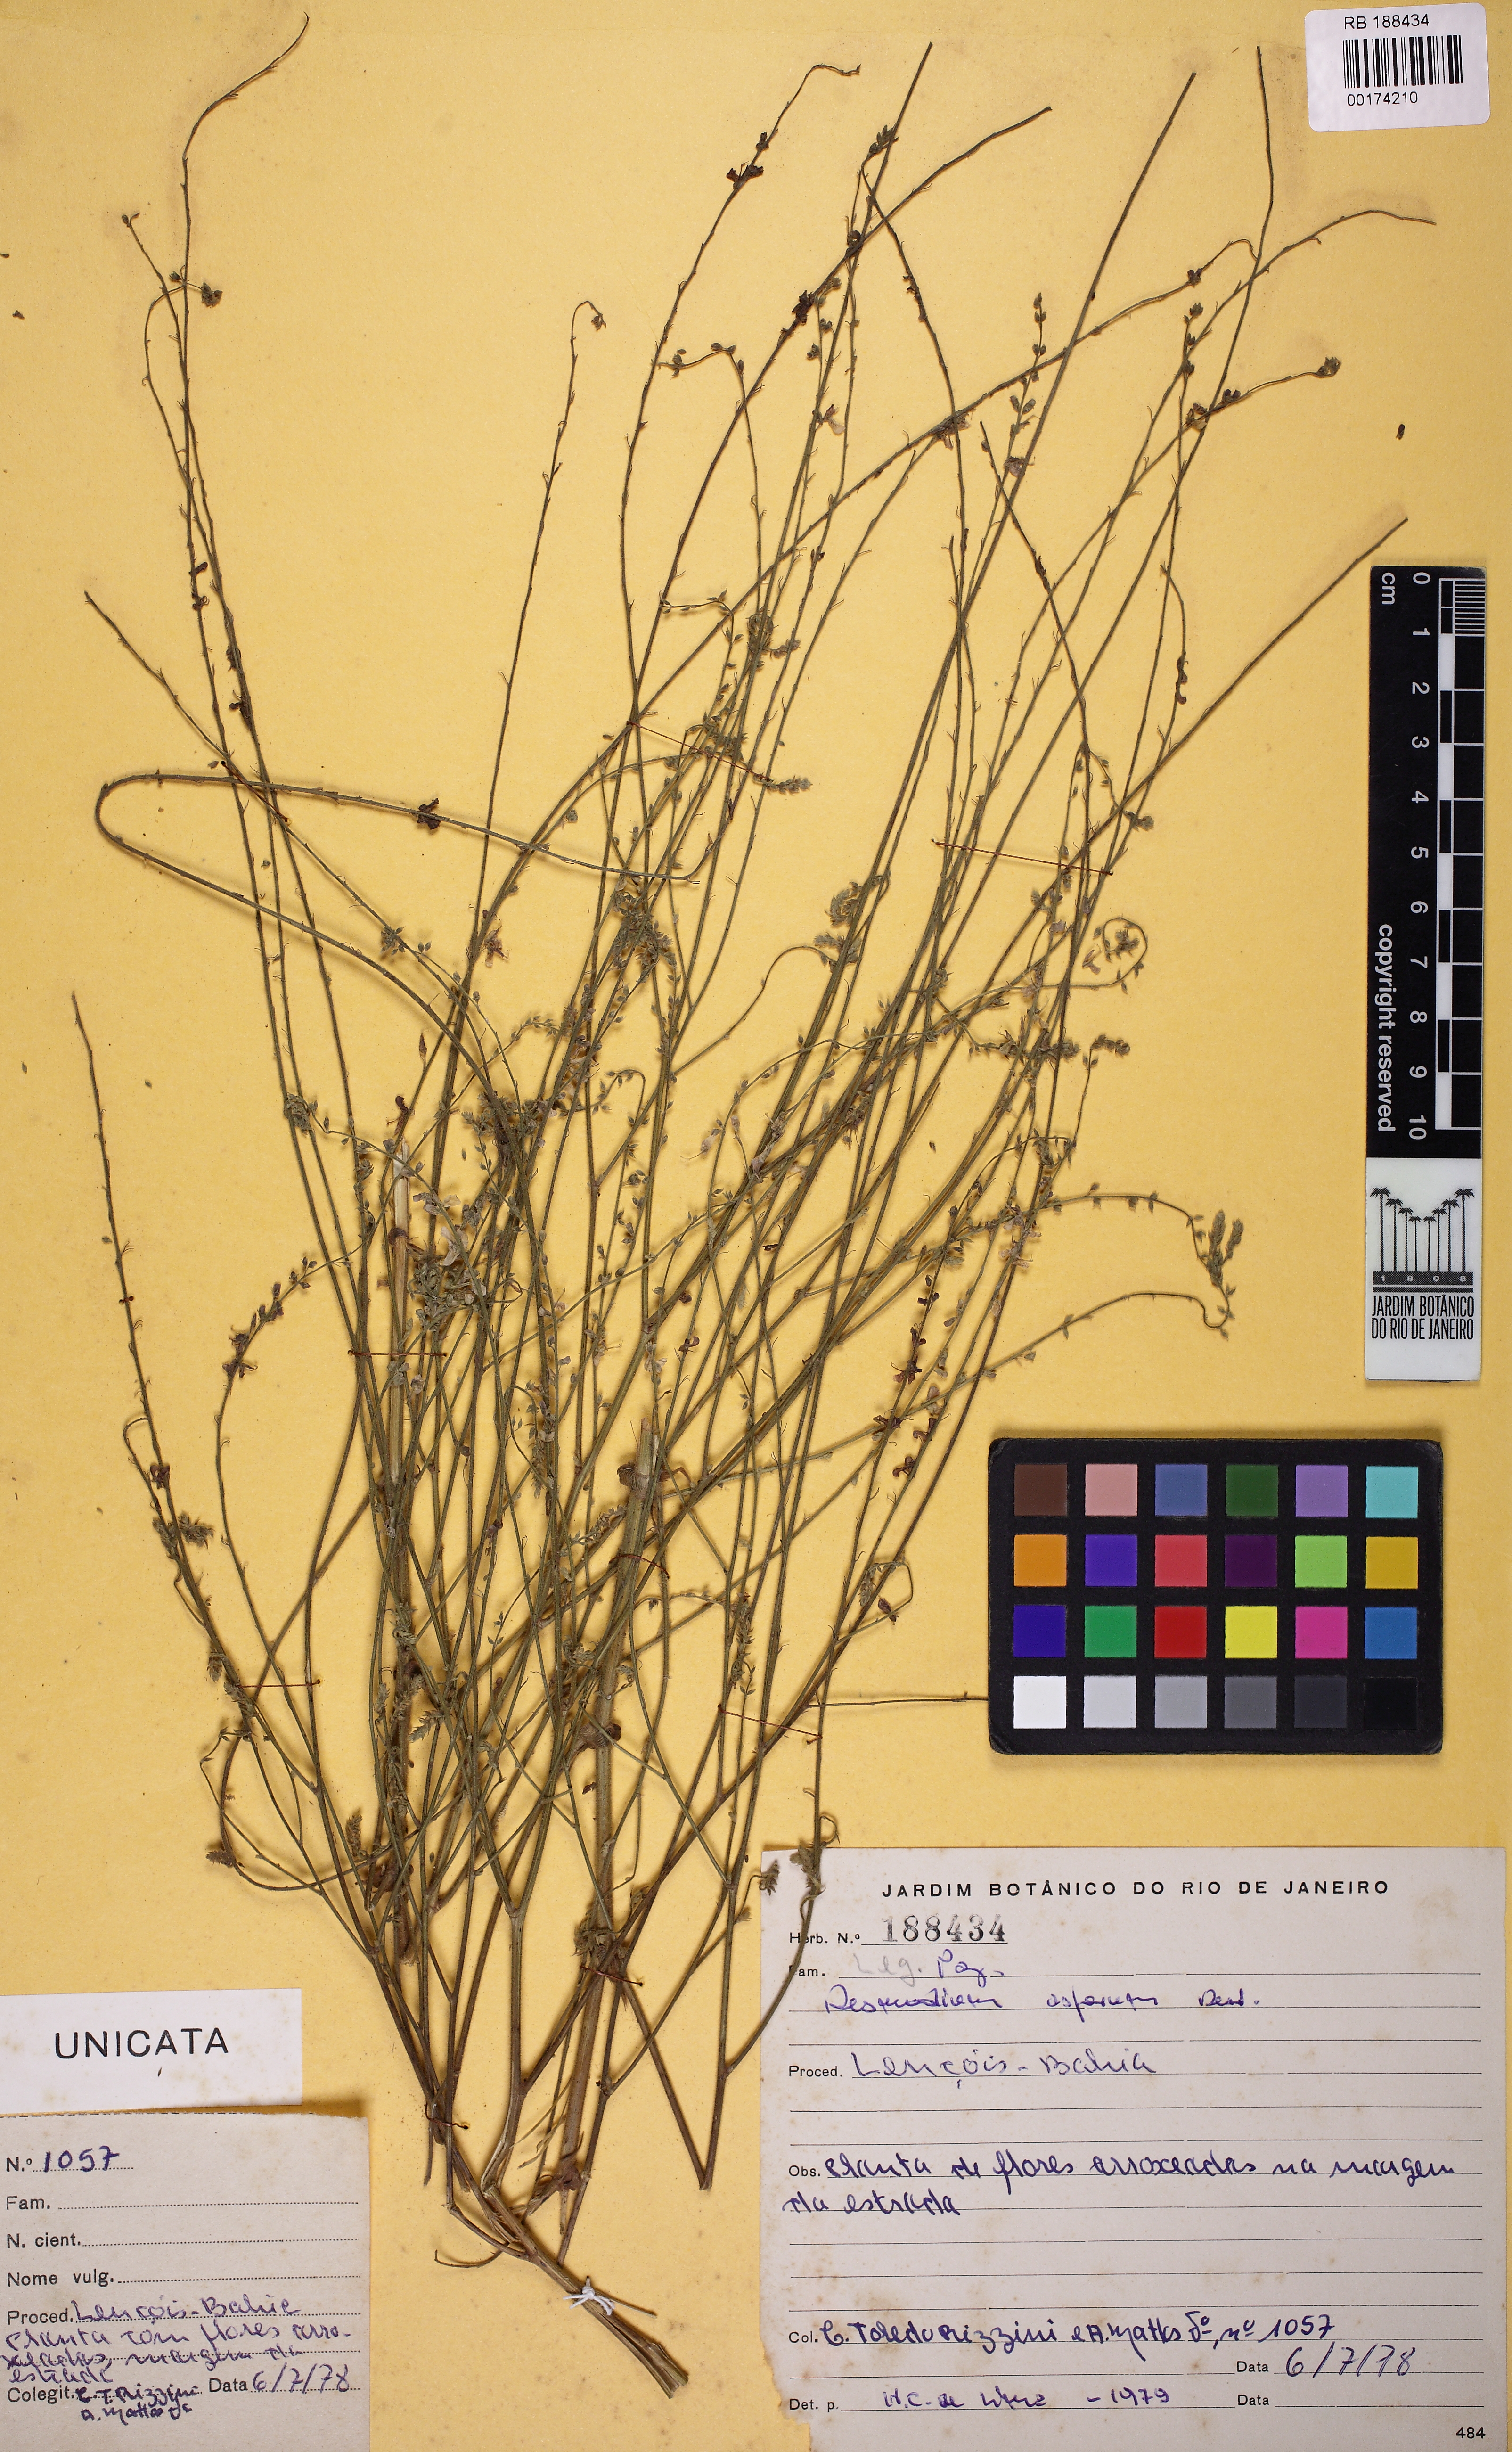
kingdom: Plantae
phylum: Tracheophyta
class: Magnoliopsida
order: Fabales
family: Fabaceae
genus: Desmodium
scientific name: Desmodium distortum
